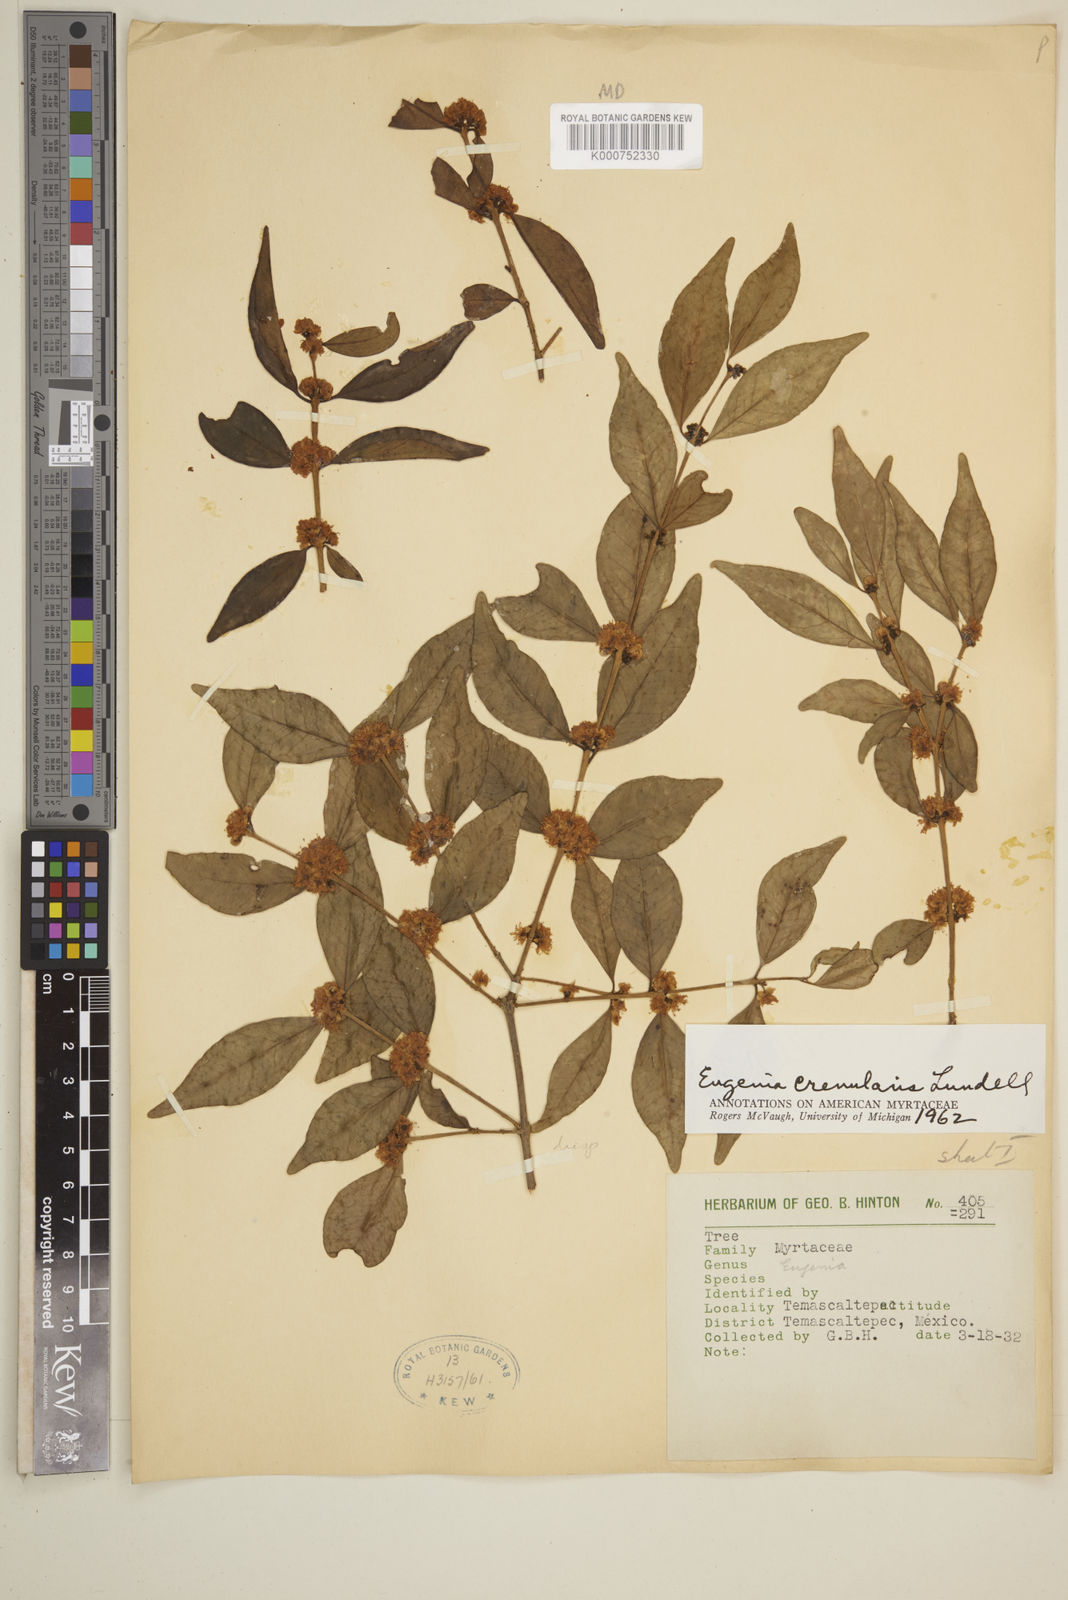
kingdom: Plantae
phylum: Tracheophyta
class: Magnoliopsida
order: Myrtales
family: Myrtaceae
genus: Eugenia
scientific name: Eugenia crenularis
